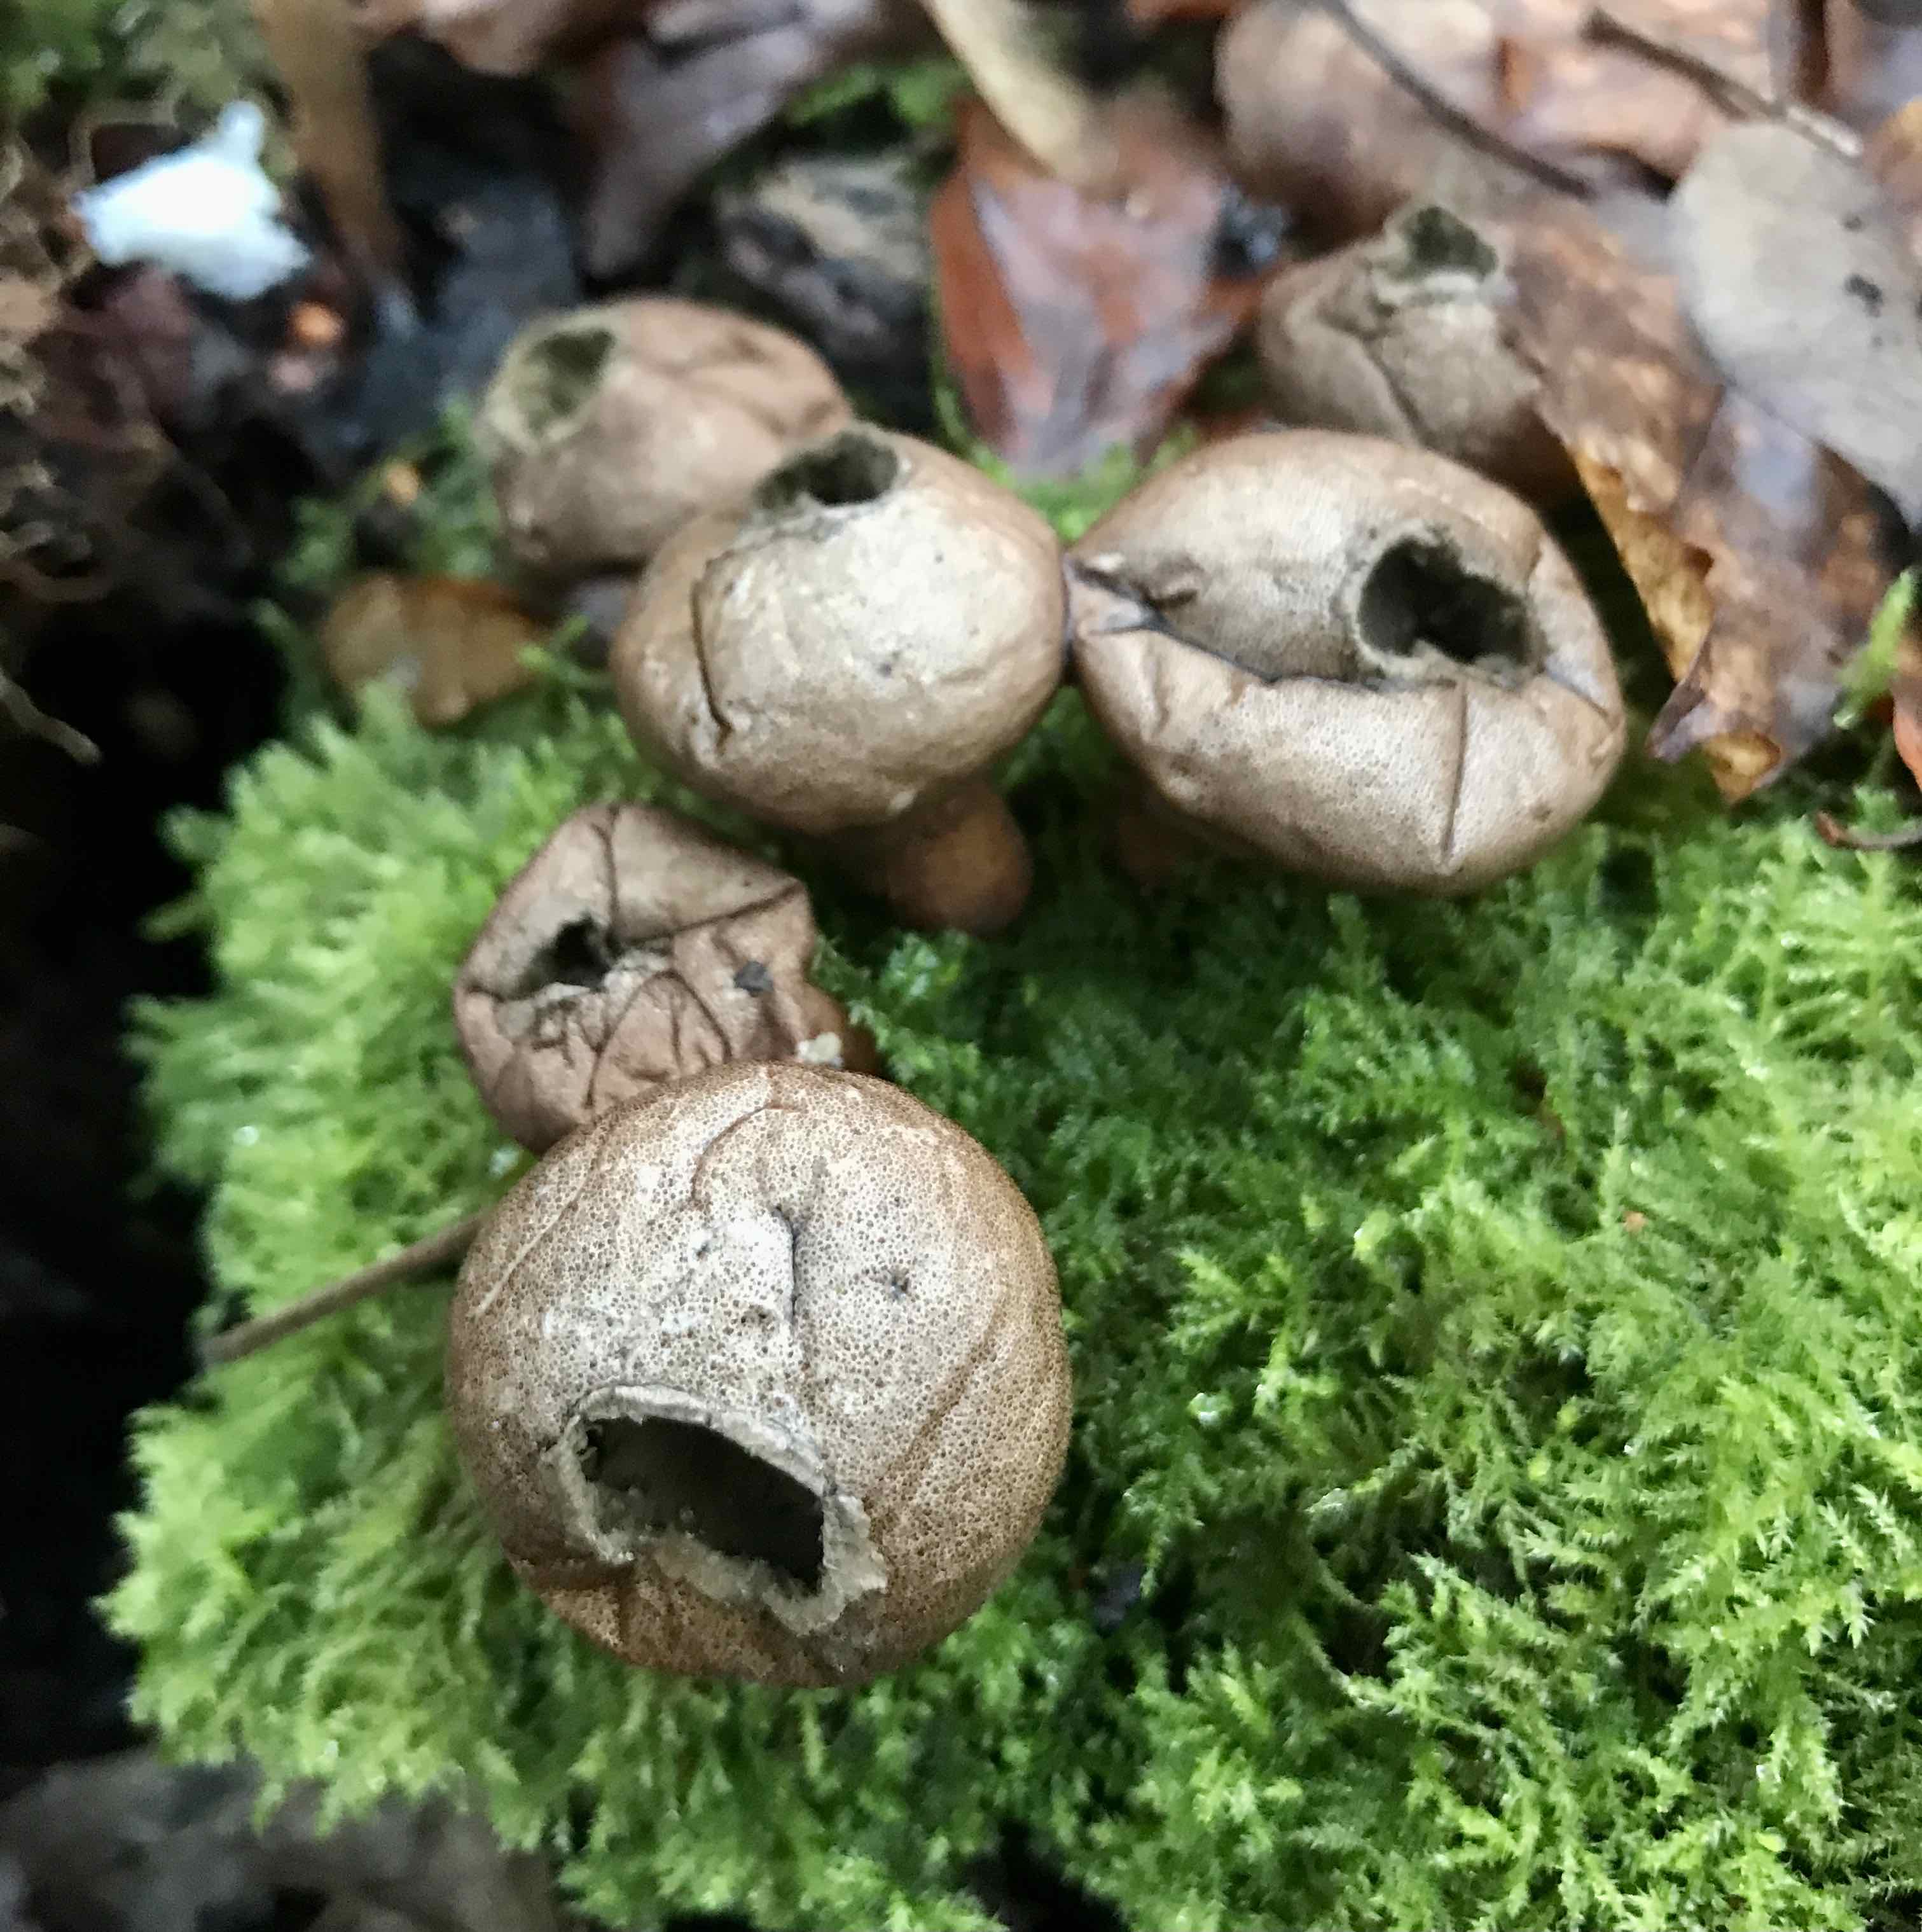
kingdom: Fungi
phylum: Basidiomycota
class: Agaricomycetes
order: Agaricales
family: Lycoperdaceae
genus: Apioperdon
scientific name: Apioperdon pyriforme
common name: pære-støvbold
